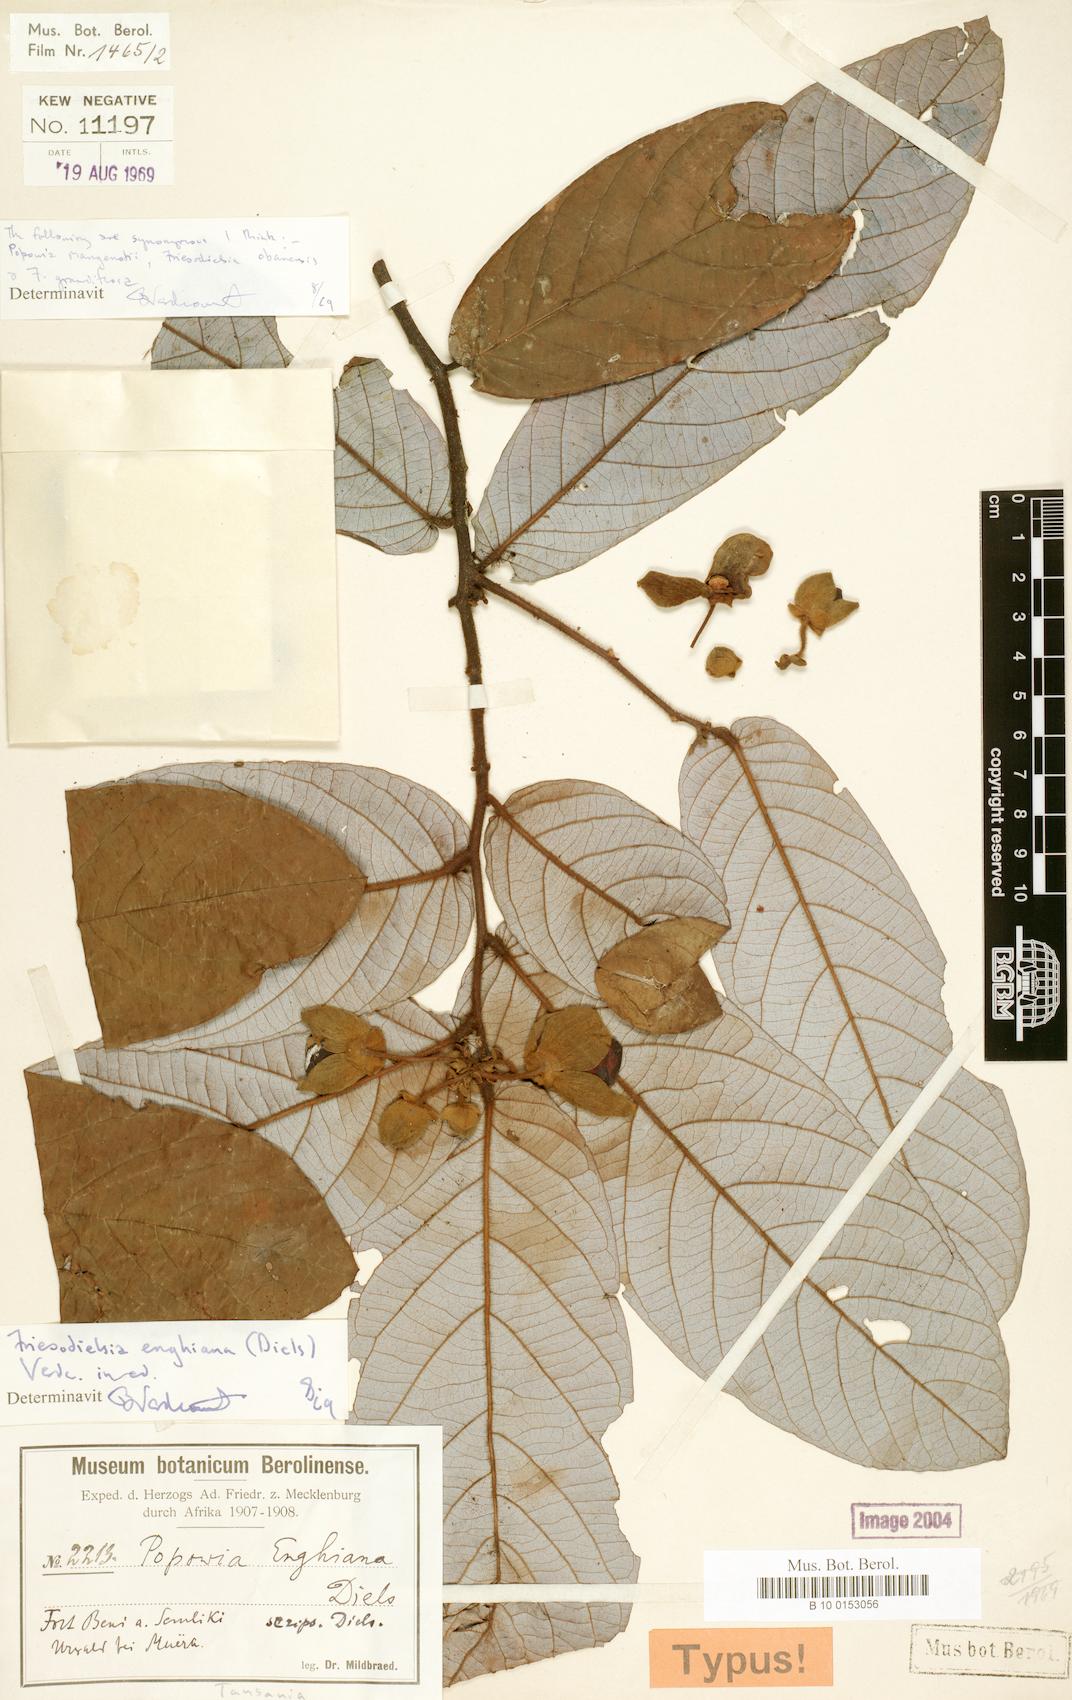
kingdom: Plantae
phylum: Tracheophyta
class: Magnoliopsida
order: Magnoliales
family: Annonaceae
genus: Friesodielsia
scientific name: Friesodielsia enghiana
